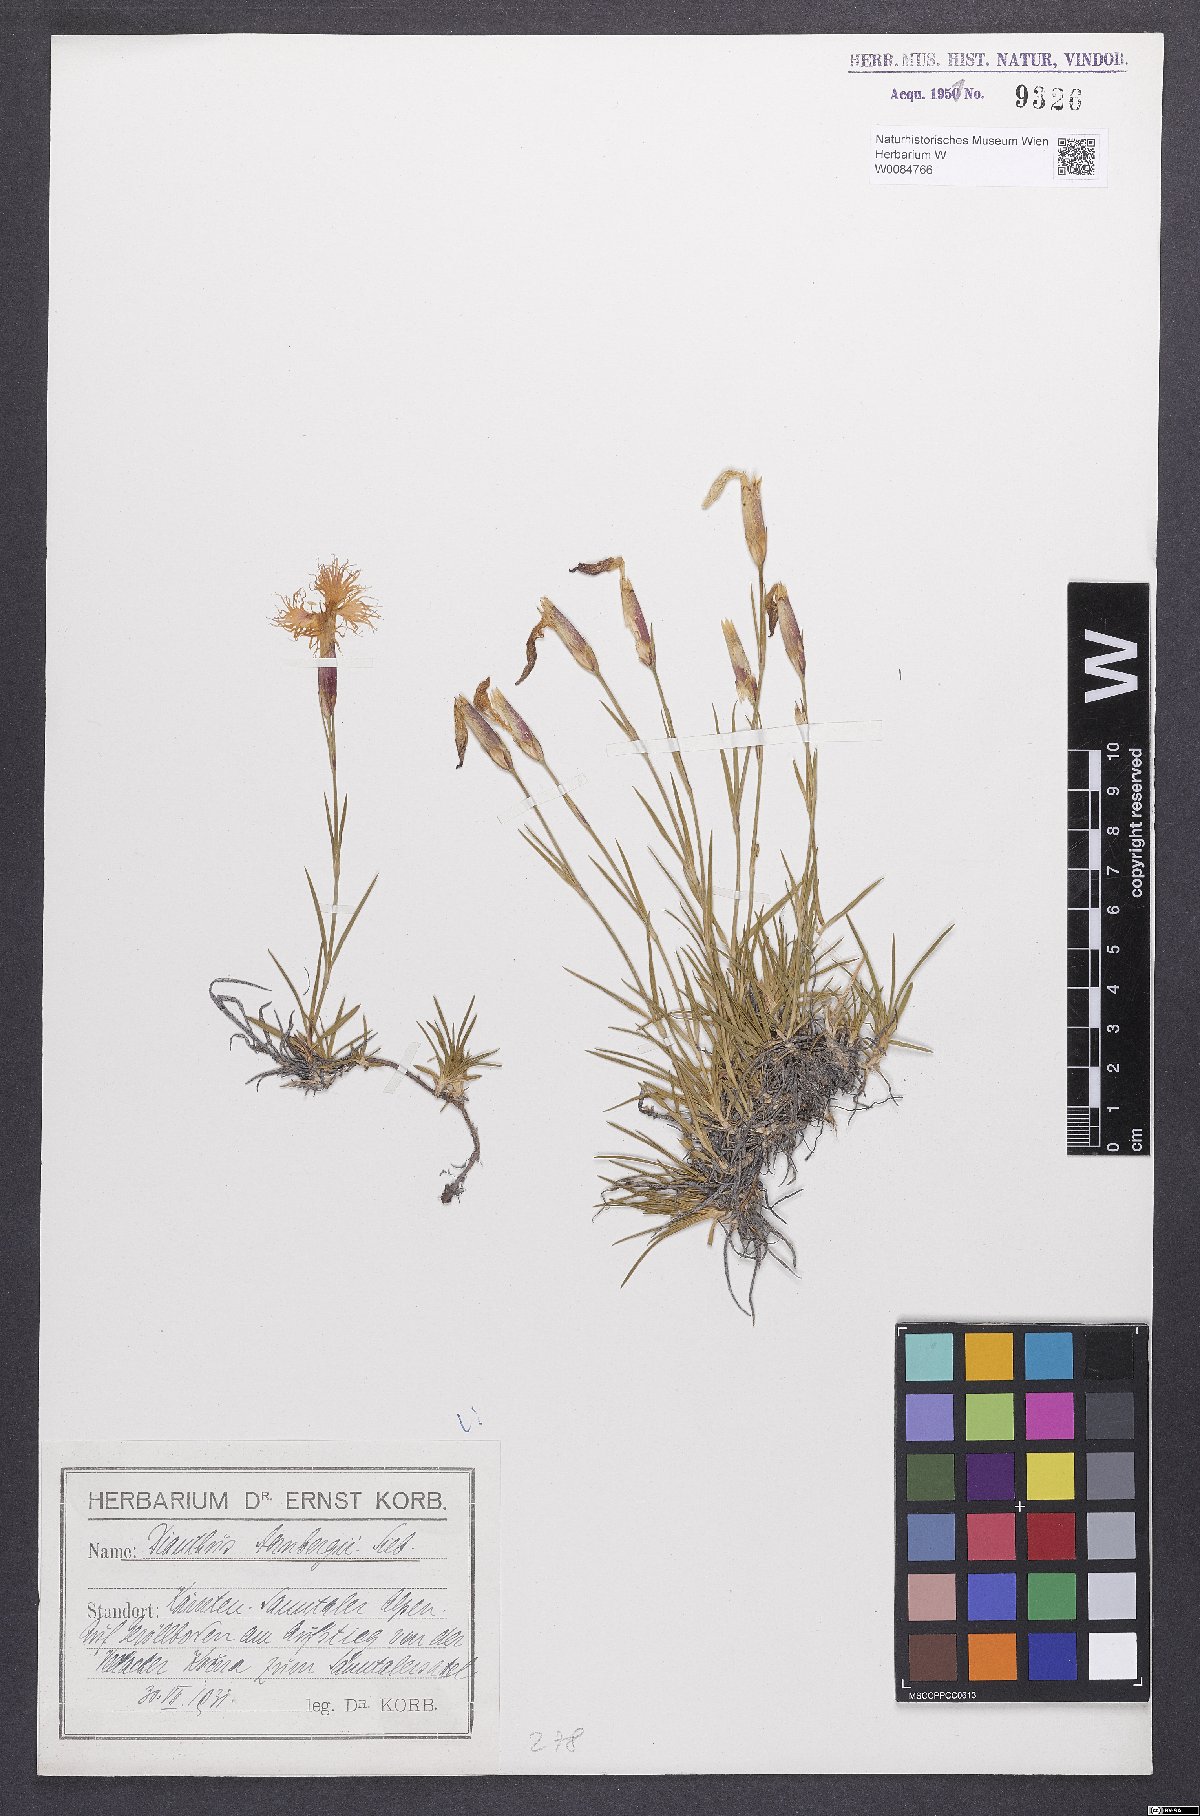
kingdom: Plantae
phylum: Tracheophyta
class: Magnoliopsida
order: Caryophyllales
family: Caryophyllaceae
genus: Dianthus
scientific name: Dianthus monspessulanus
